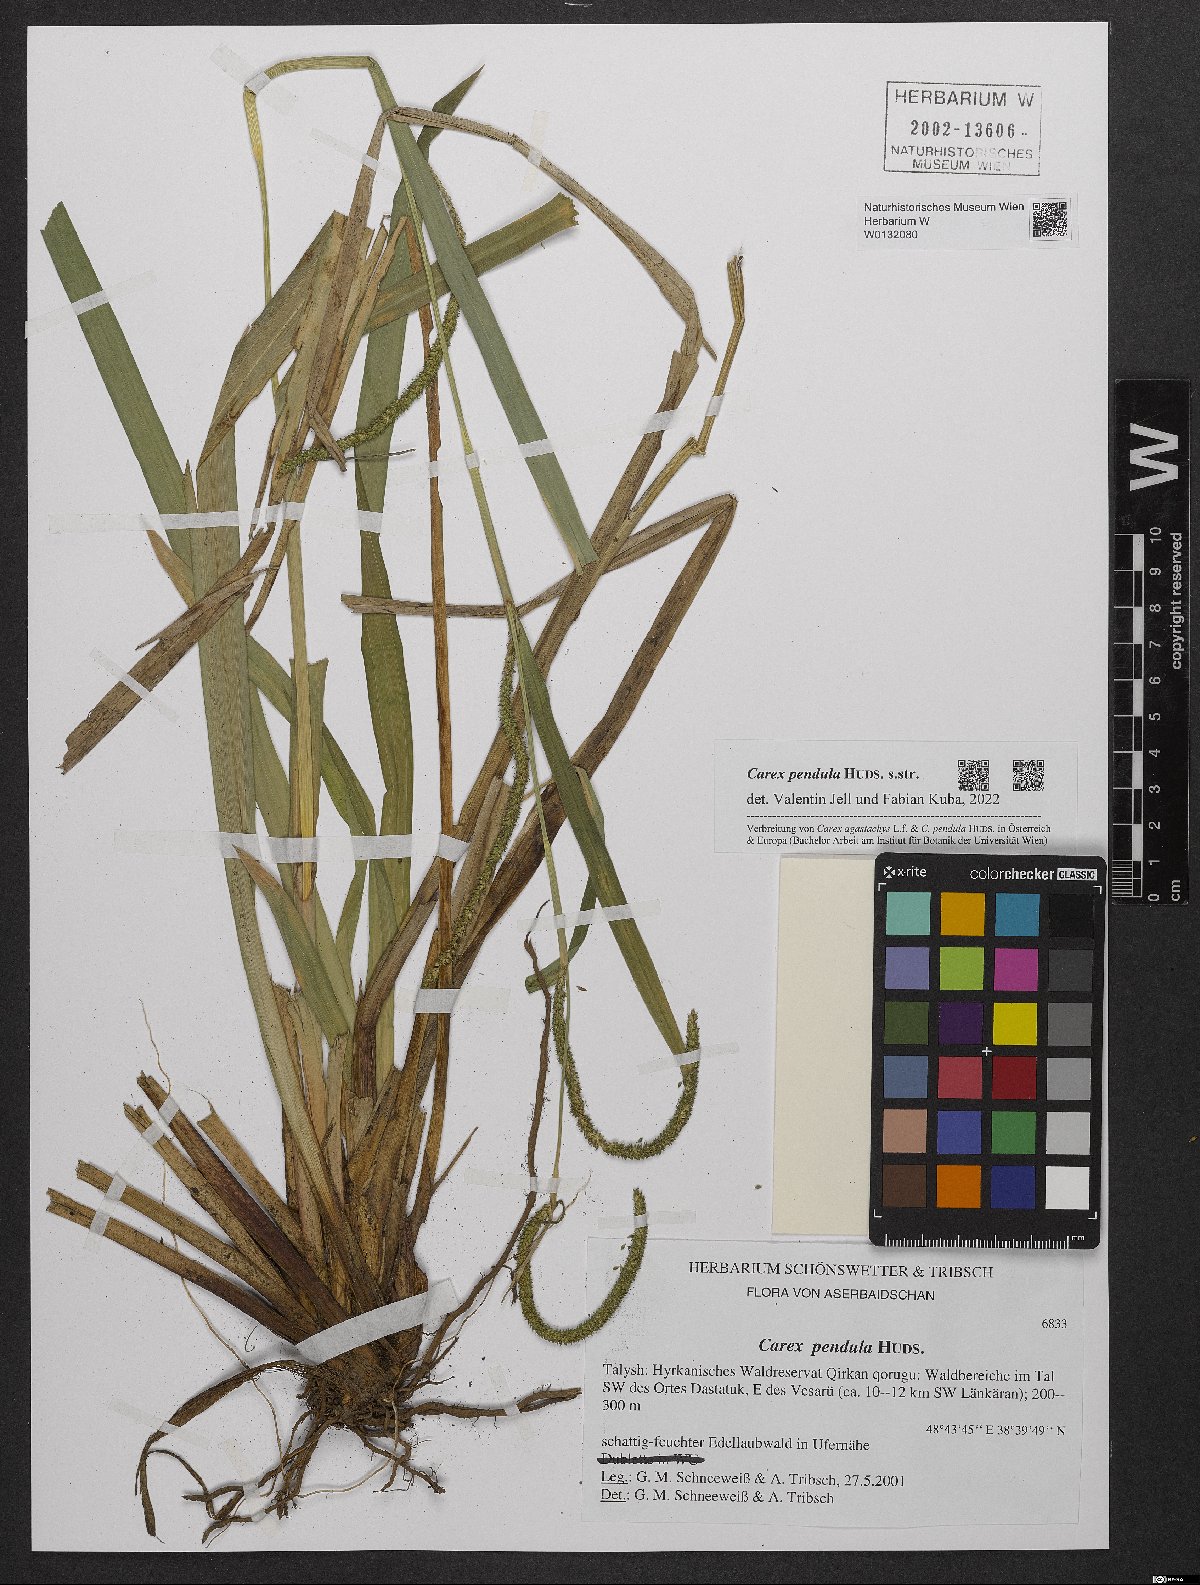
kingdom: Plantae
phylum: Tracheophyta
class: Liliopsida
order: Poales
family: Cyperaceae
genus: Carex
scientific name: Carex pendula
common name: Pendulous sedge
